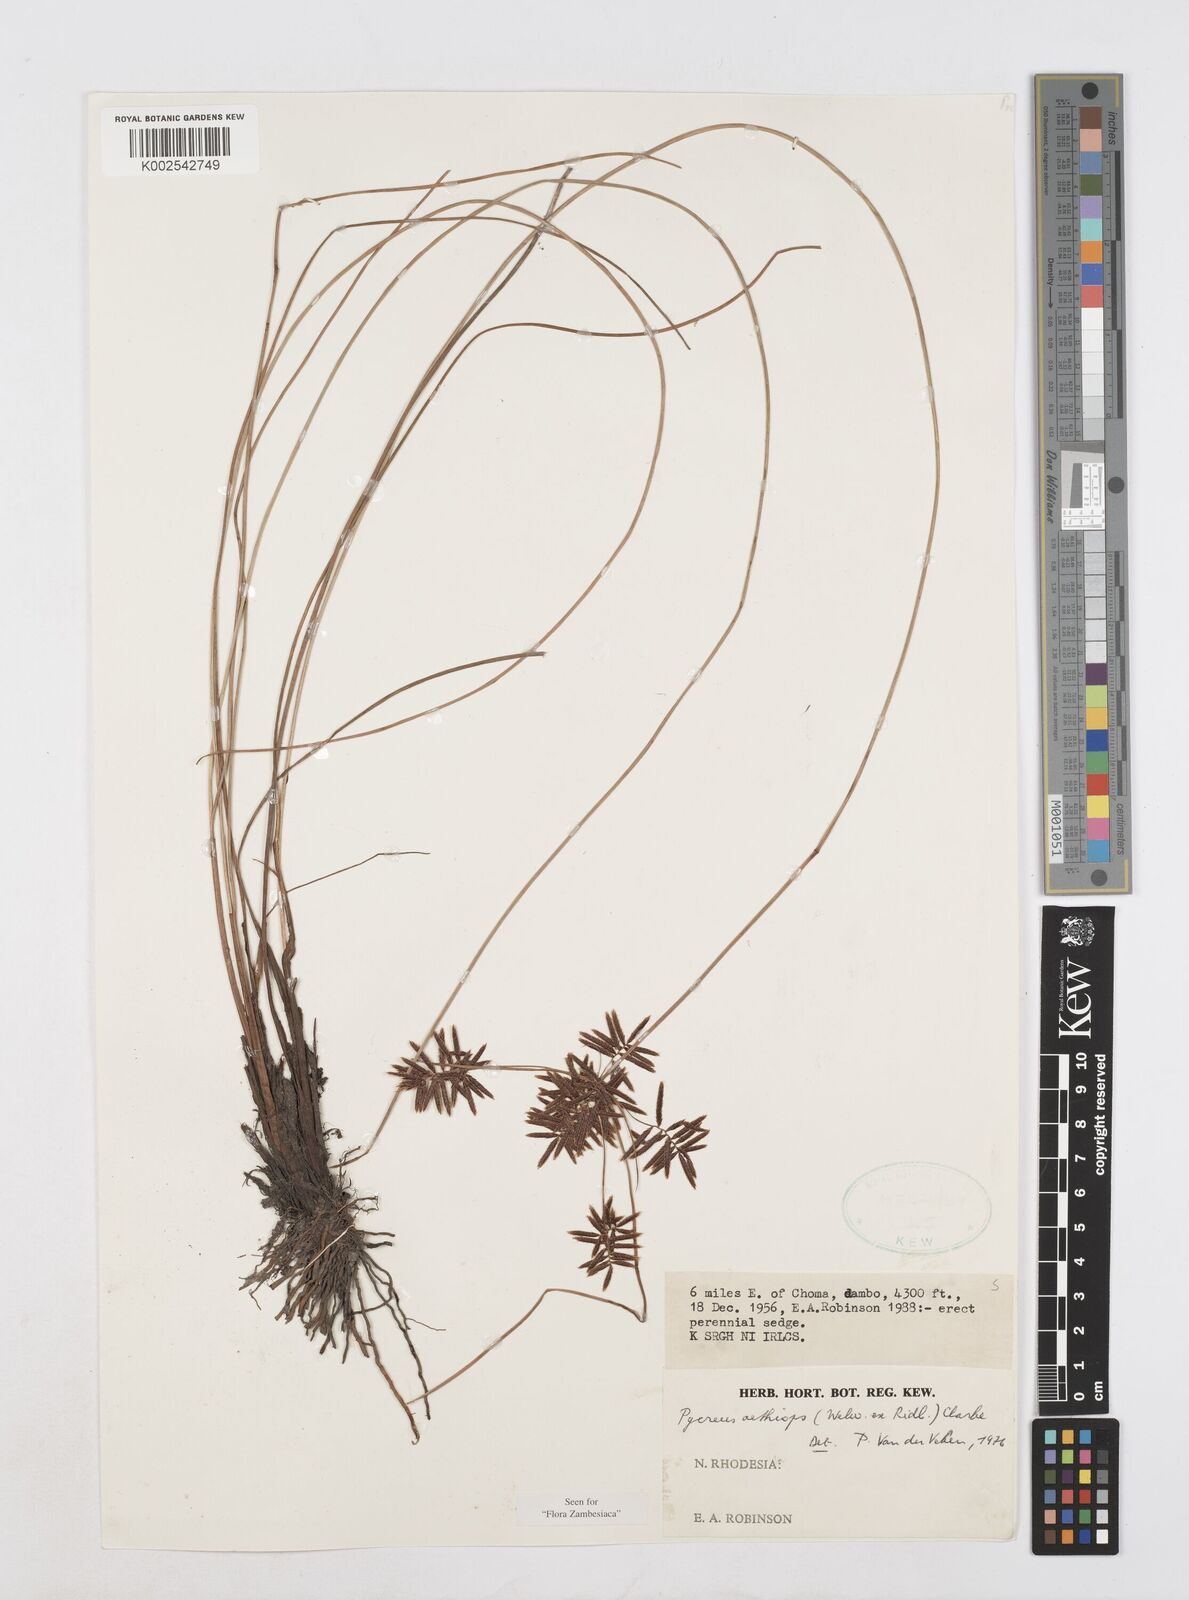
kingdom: Plantae
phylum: Tracheophyta
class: Liliopsida
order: Poales
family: Cyperaceae
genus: Cyperus
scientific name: Cyperus aethiops
